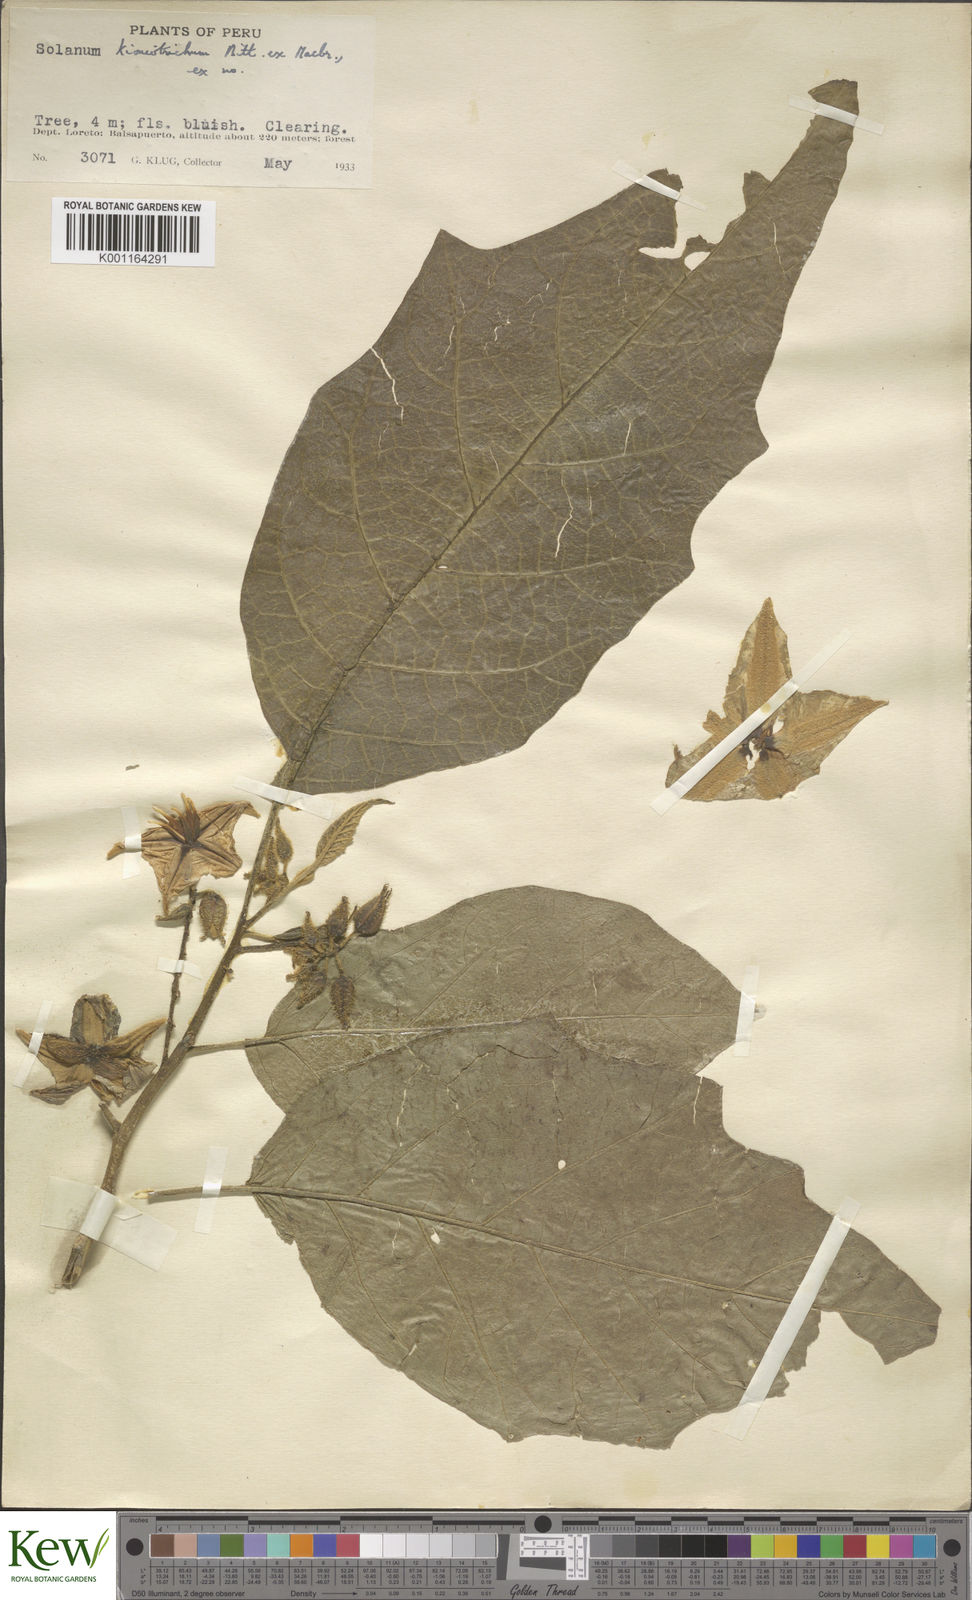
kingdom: Plantae
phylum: Tracheophyta
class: Magnoliopsida
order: Solanales
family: Solanaceae
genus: Solanum
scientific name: Solanum kioniotrichum
